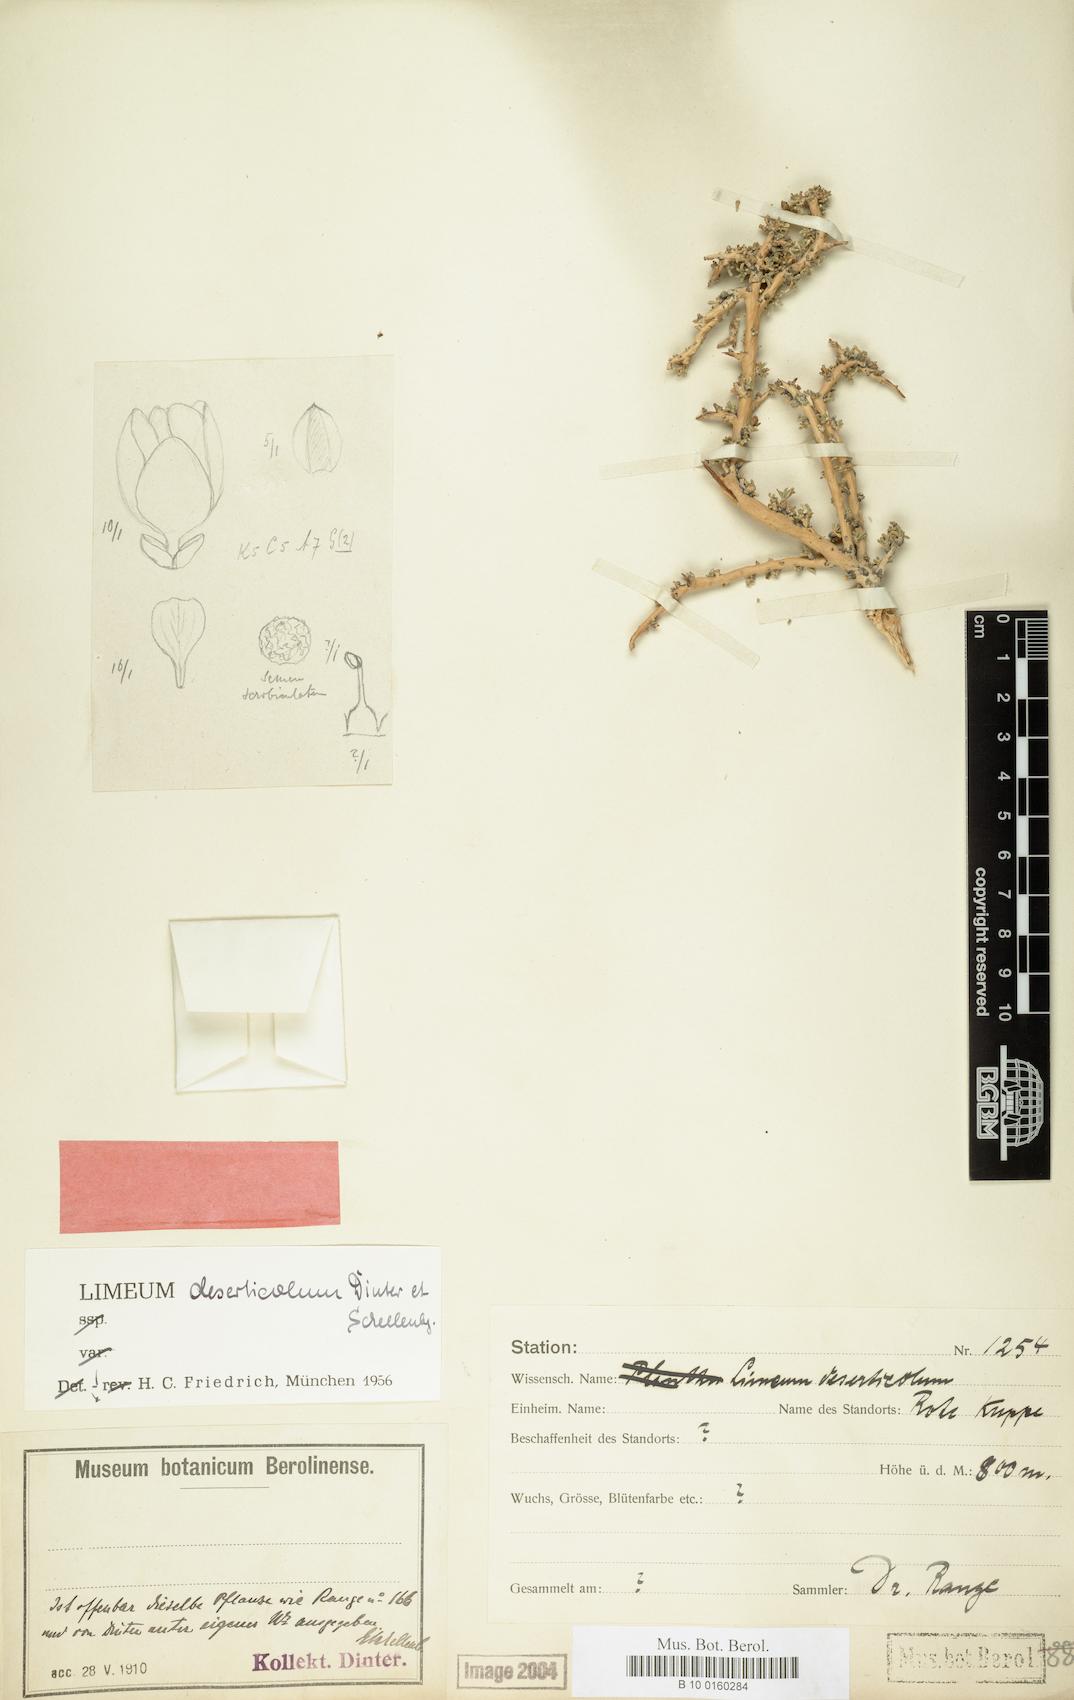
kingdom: Plantae
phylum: Tracheophyta
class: Magnoliopsida
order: Caryophyllales
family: Limeaceae
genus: Limeum
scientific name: Limeum deserticolum
